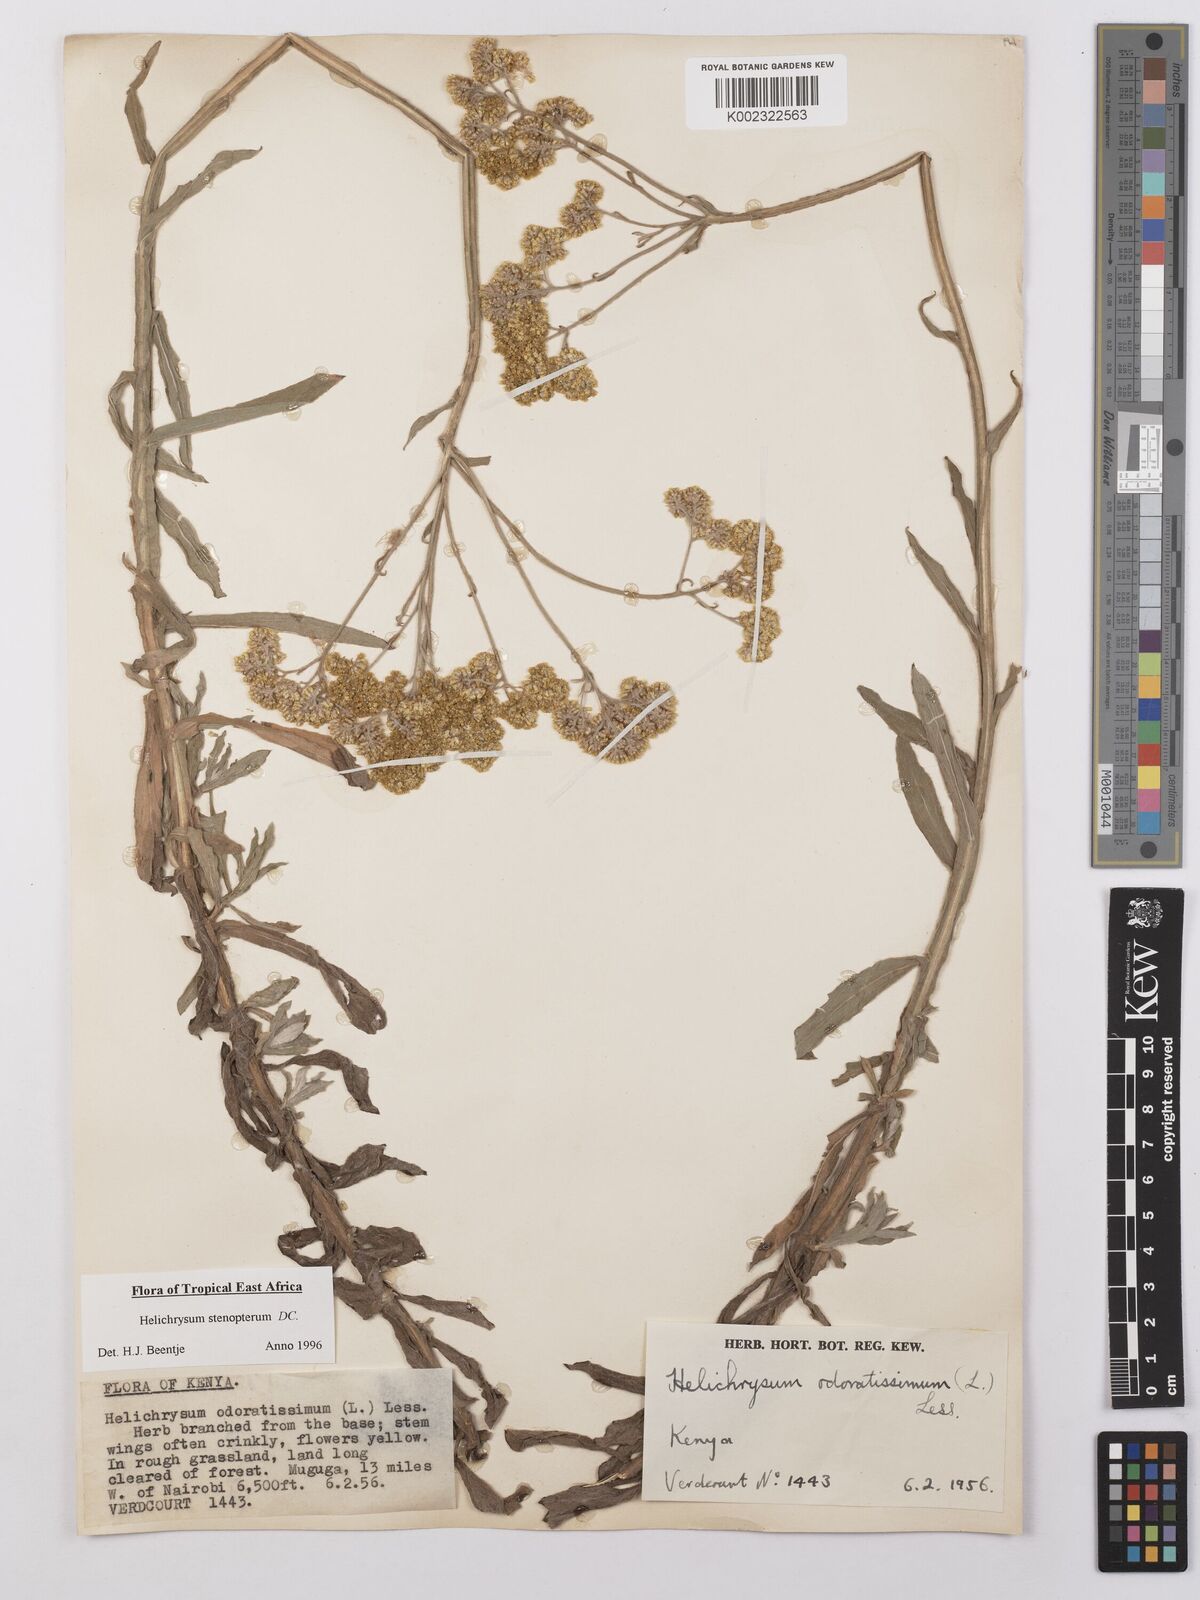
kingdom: Plantae
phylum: Tracheophyta
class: Magnoliopsida
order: Asterales
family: Asteraceae
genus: Helichrysum
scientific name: Helichrysum stenopterum
